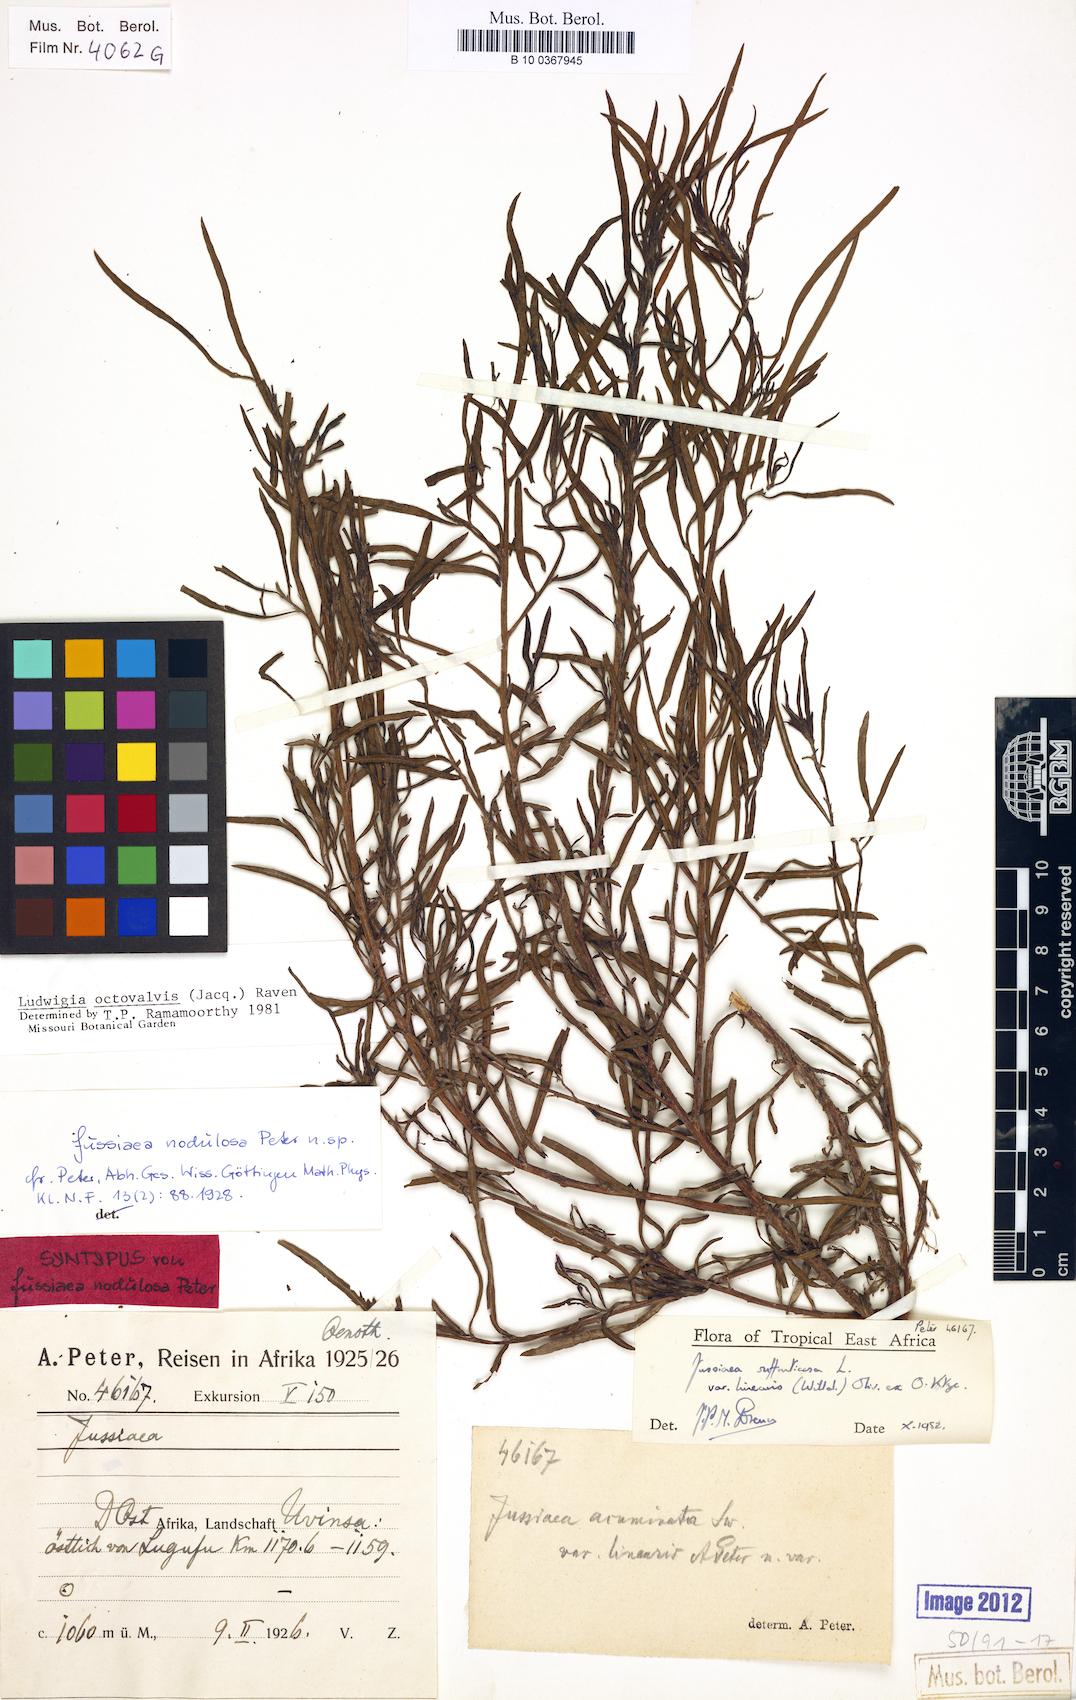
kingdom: Plantae
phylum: Tracheophyta
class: Magnoliopsida
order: Myrtales
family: Onagraceae
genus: Ludwigia
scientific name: Ludwigia octovalvis
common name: Water-primrose
